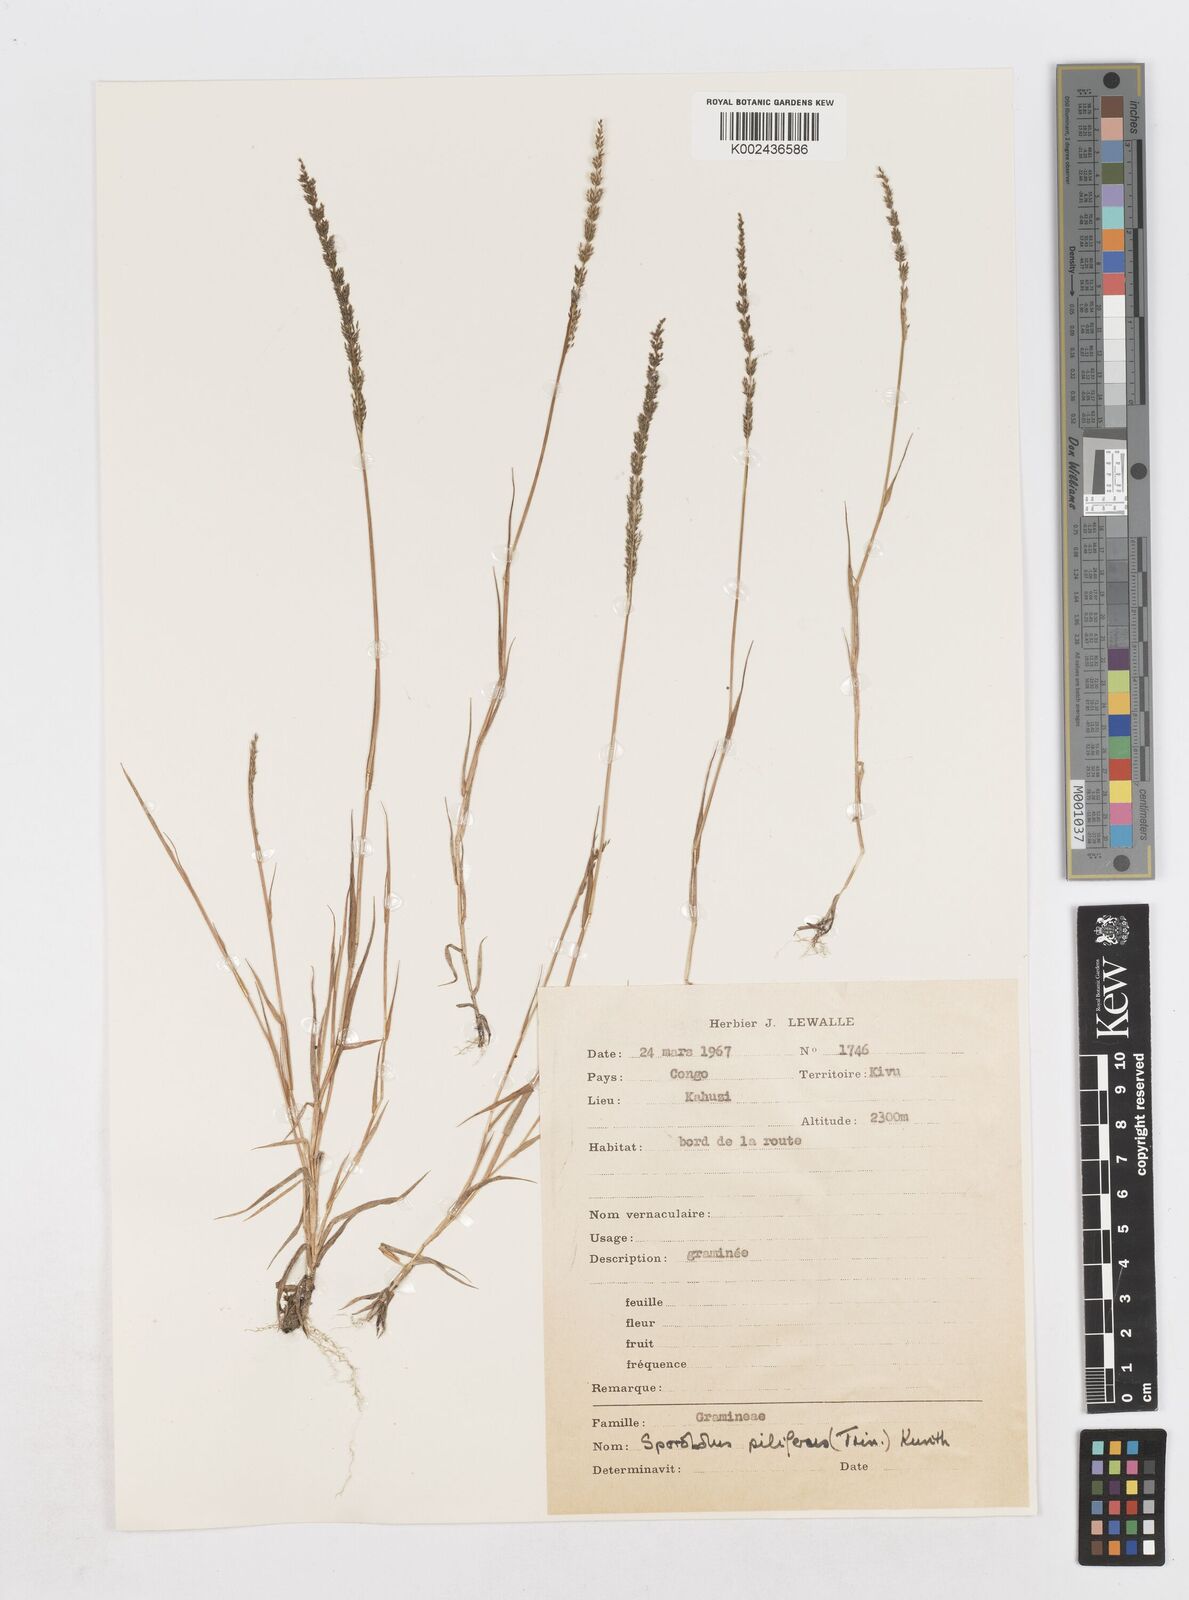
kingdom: Plantae
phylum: Tracheophyta
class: Liliopsida
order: Poales
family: Poaceae
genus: Sporobolus
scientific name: Sporobolus pilifer
